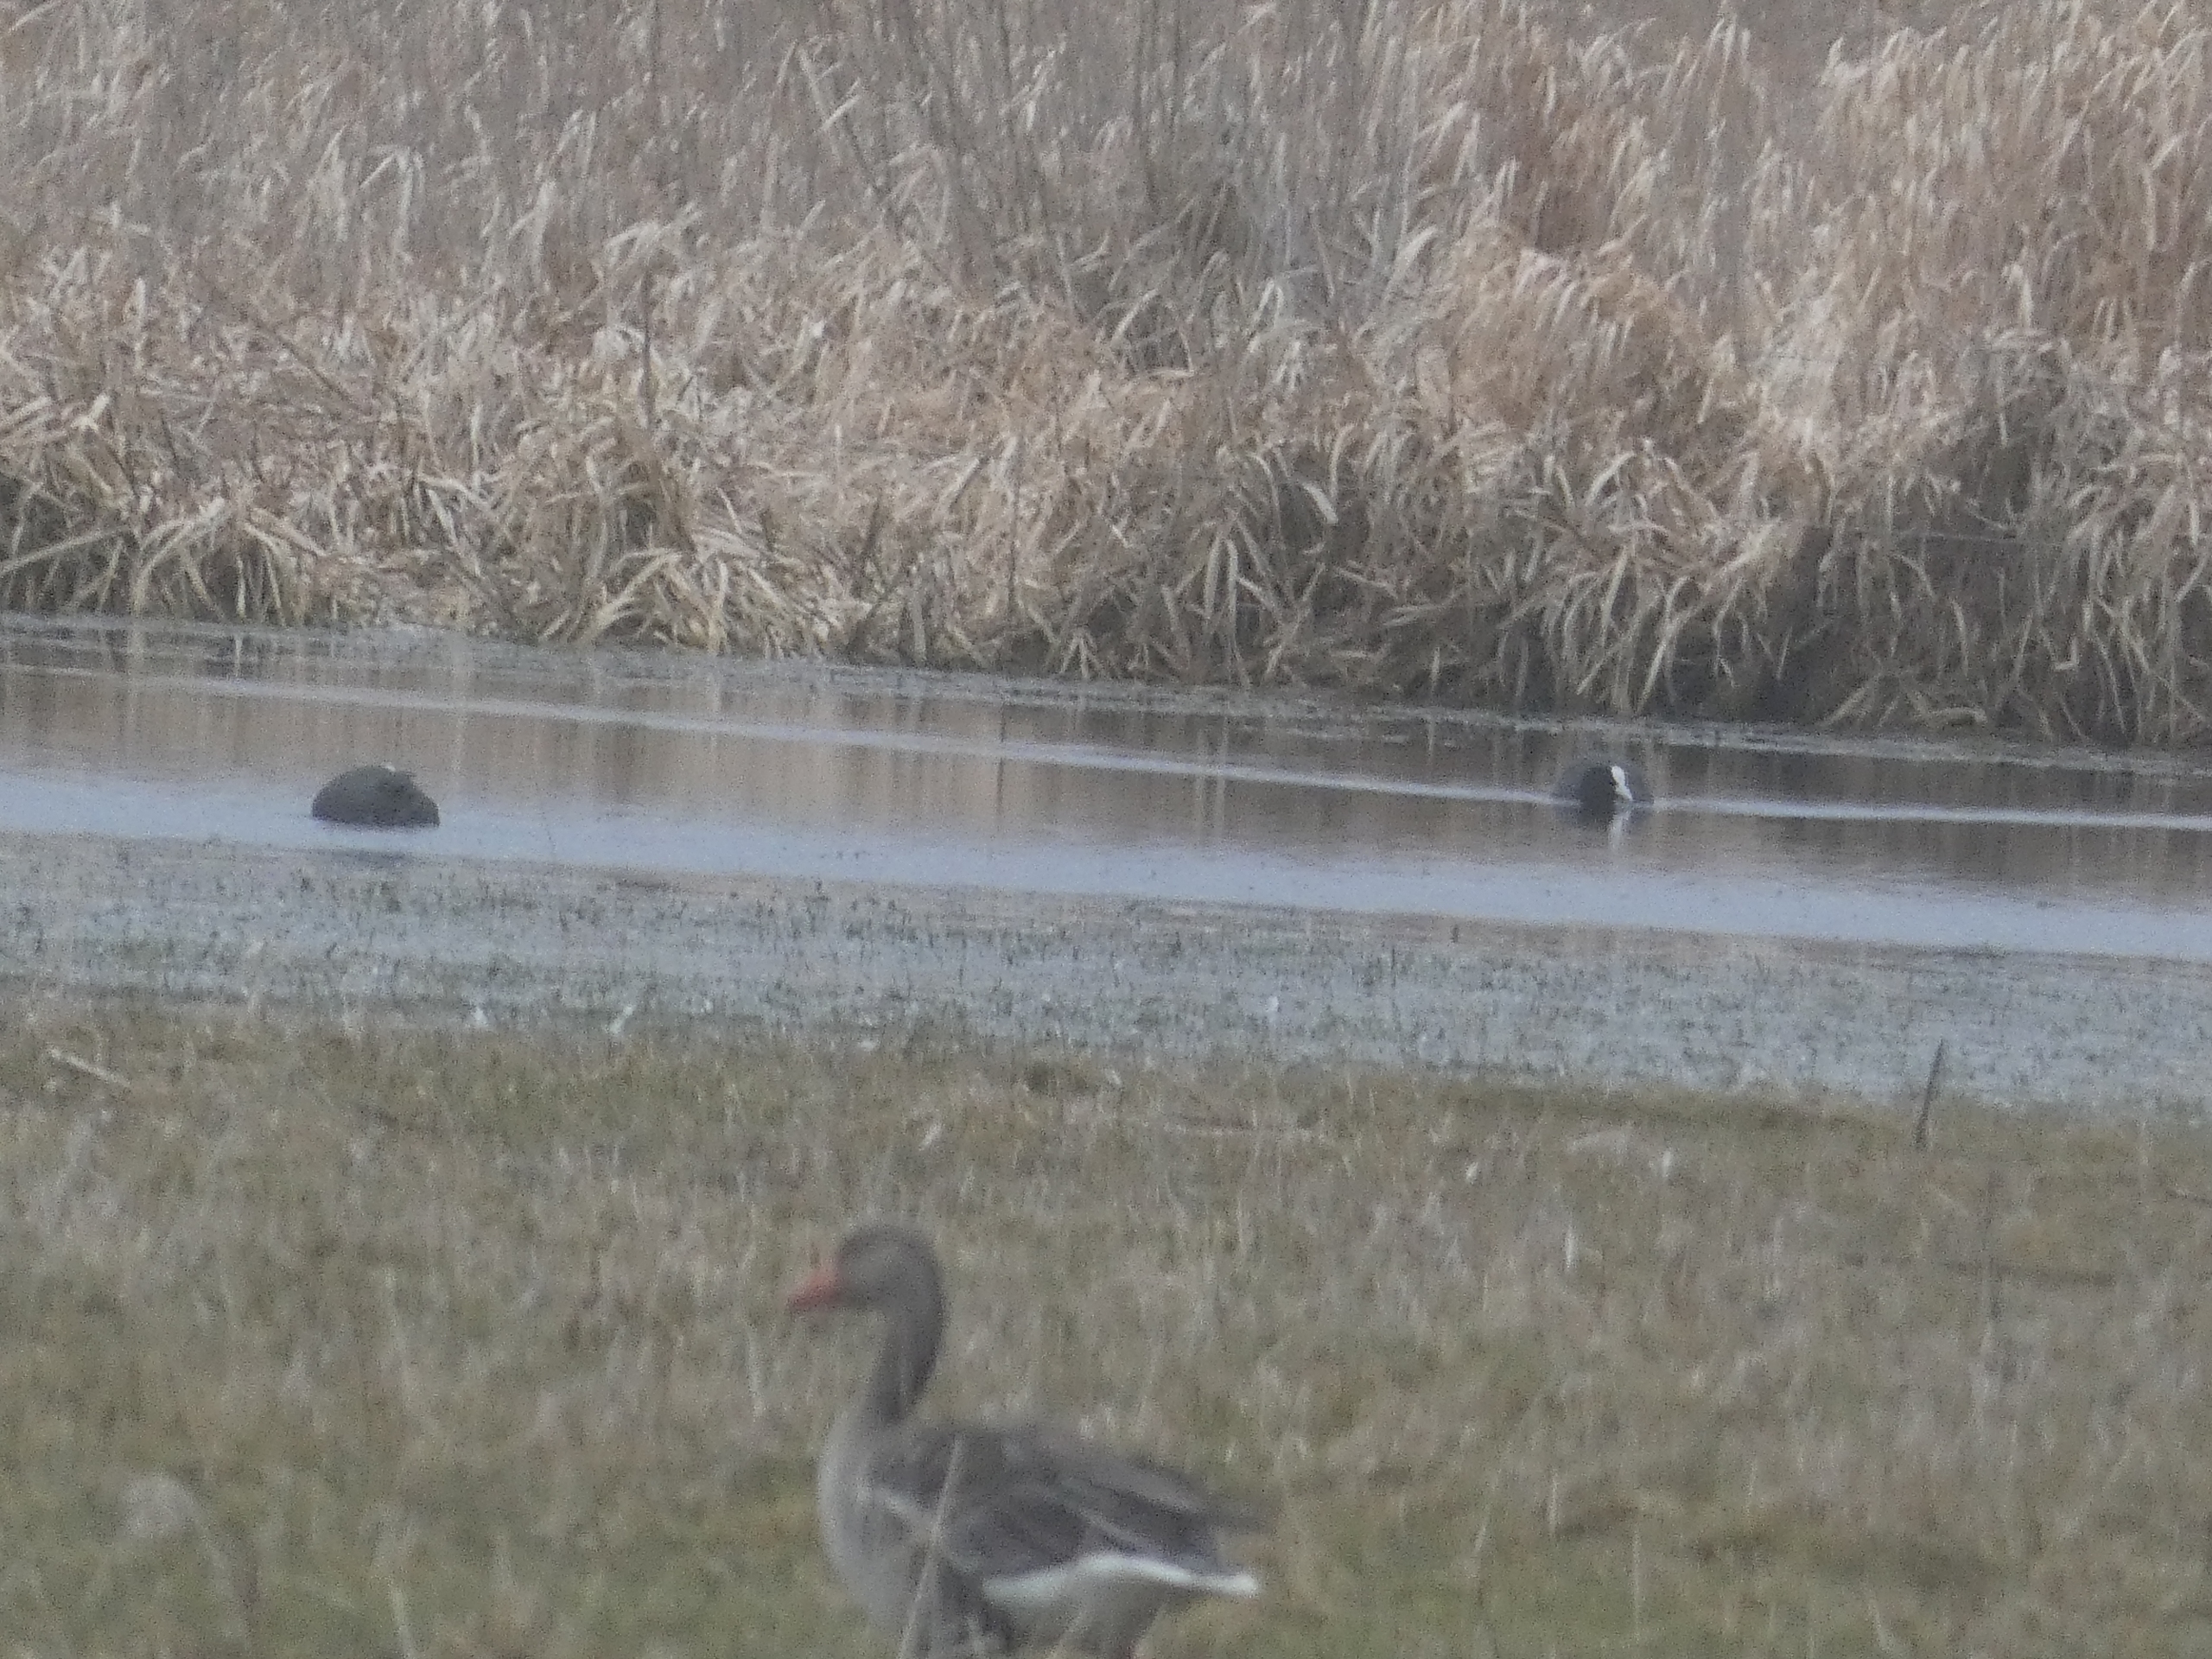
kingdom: Animalia
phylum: Chordata
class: Aves
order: Gruiformes
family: Rallidae
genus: Fulica
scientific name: Fulica atra
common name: Blishøne
